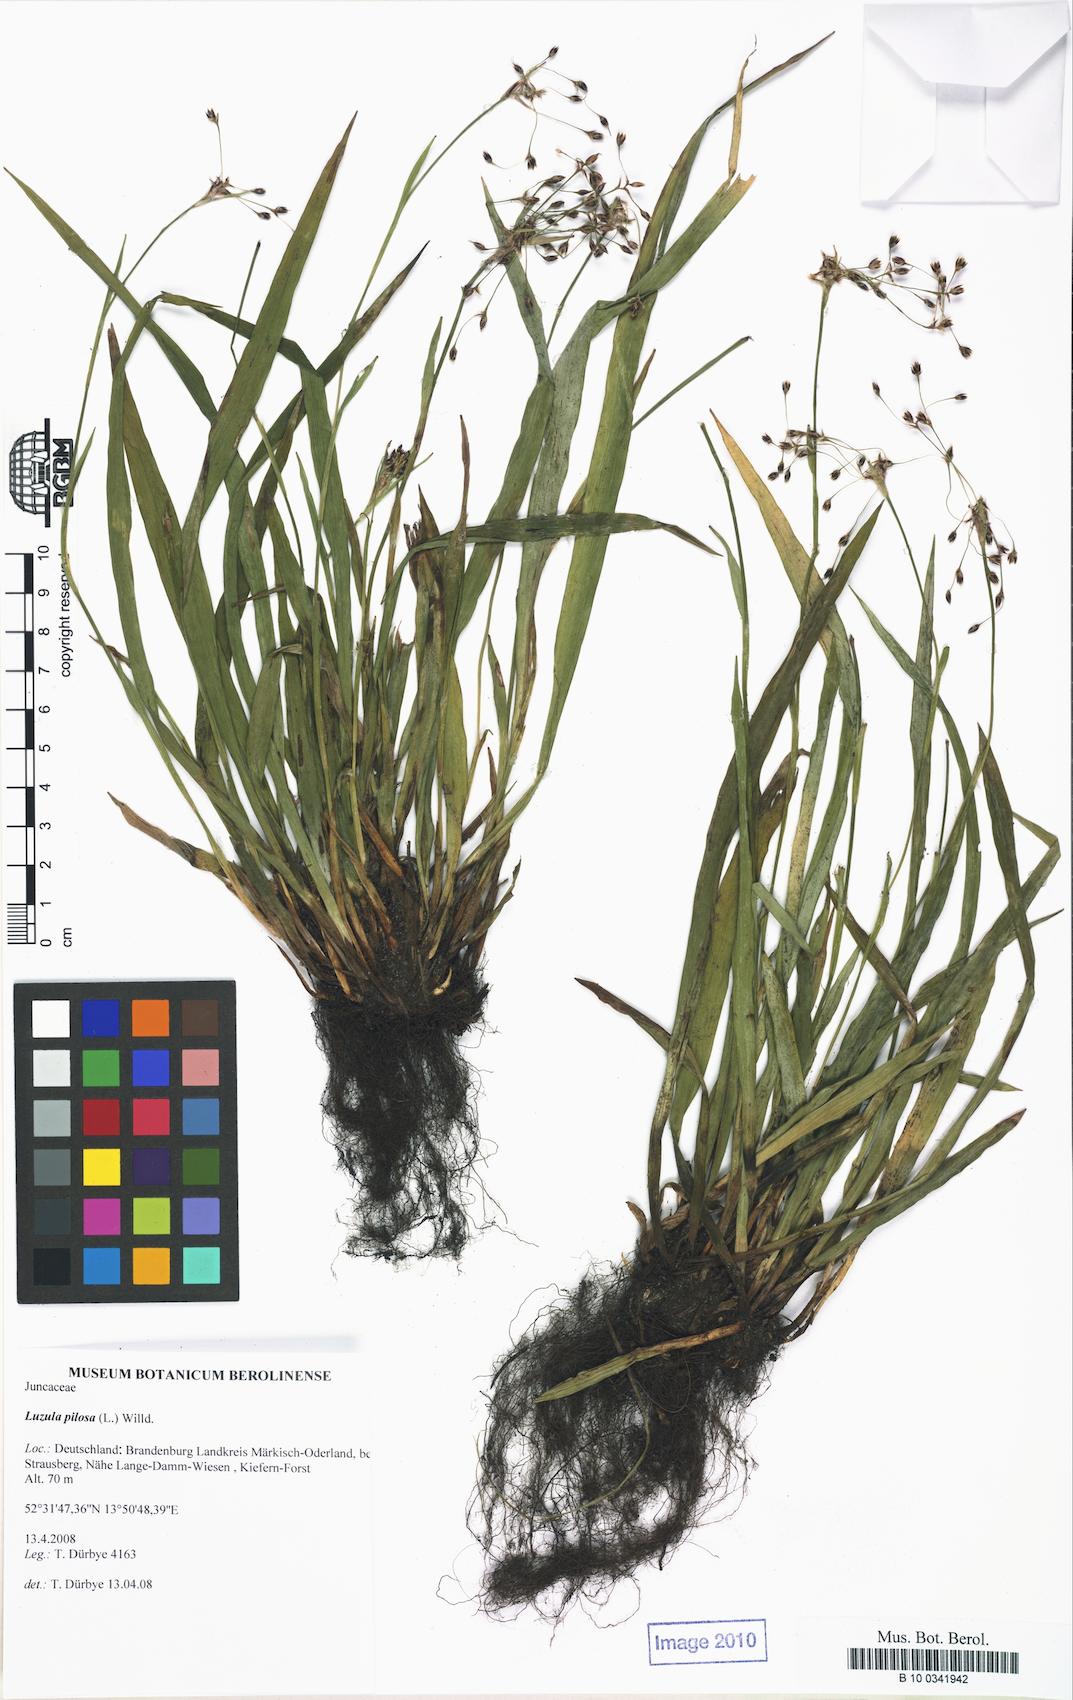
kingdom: Plantae
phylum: Tracheophyta
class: Liliopsida
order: Poales
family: Juncaceae
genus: Luzula
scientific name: Luzula pilosa
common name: Hairy wood-rush
